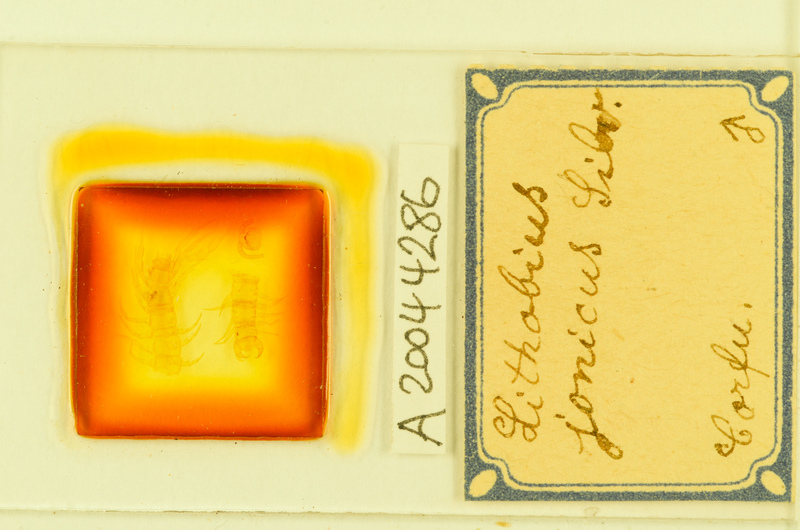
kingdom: Animalia
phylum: Arthropoda
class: Chilopoda
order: Lithobiomorpha
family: Lithobiidae
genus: Lithobius
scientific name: Lithobius jonicus
